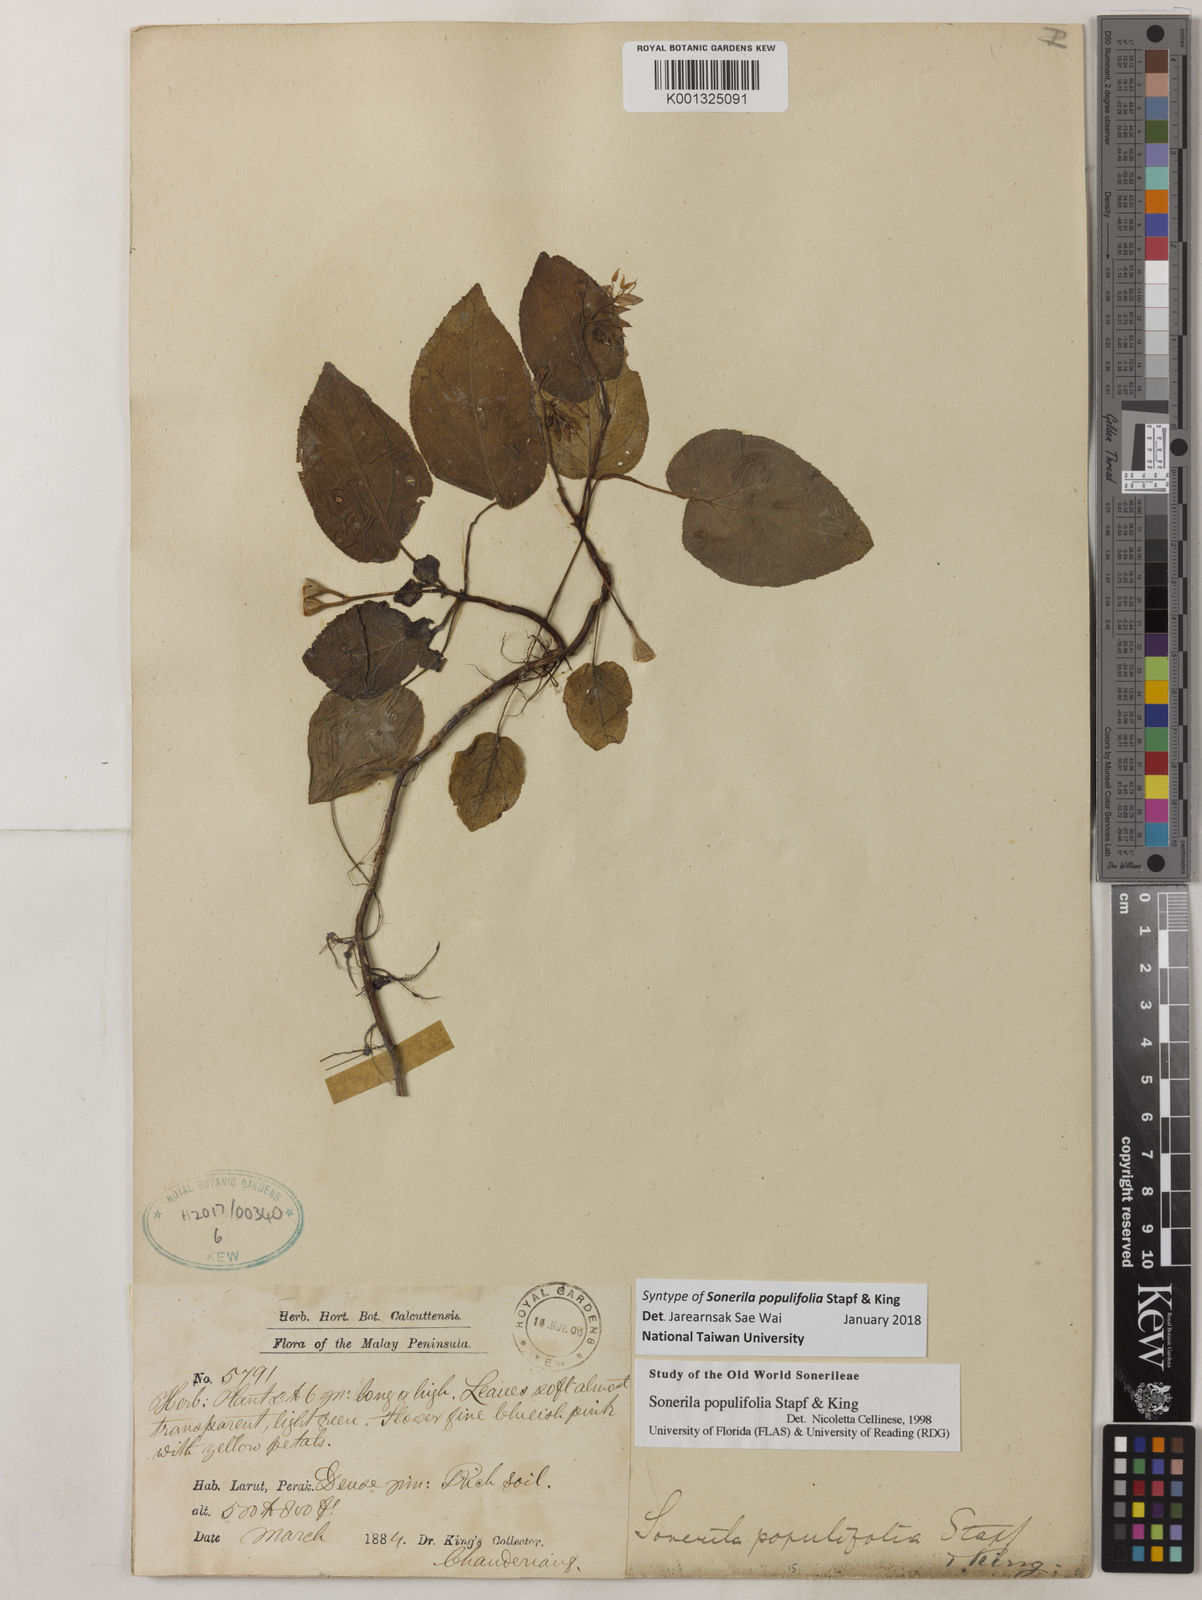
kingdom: Plantae
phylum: Tracheophyta
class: Magnoliopsida
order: Myrtales
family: Melastomataceae
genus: Sonerila
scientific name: Sonerila populifolia
